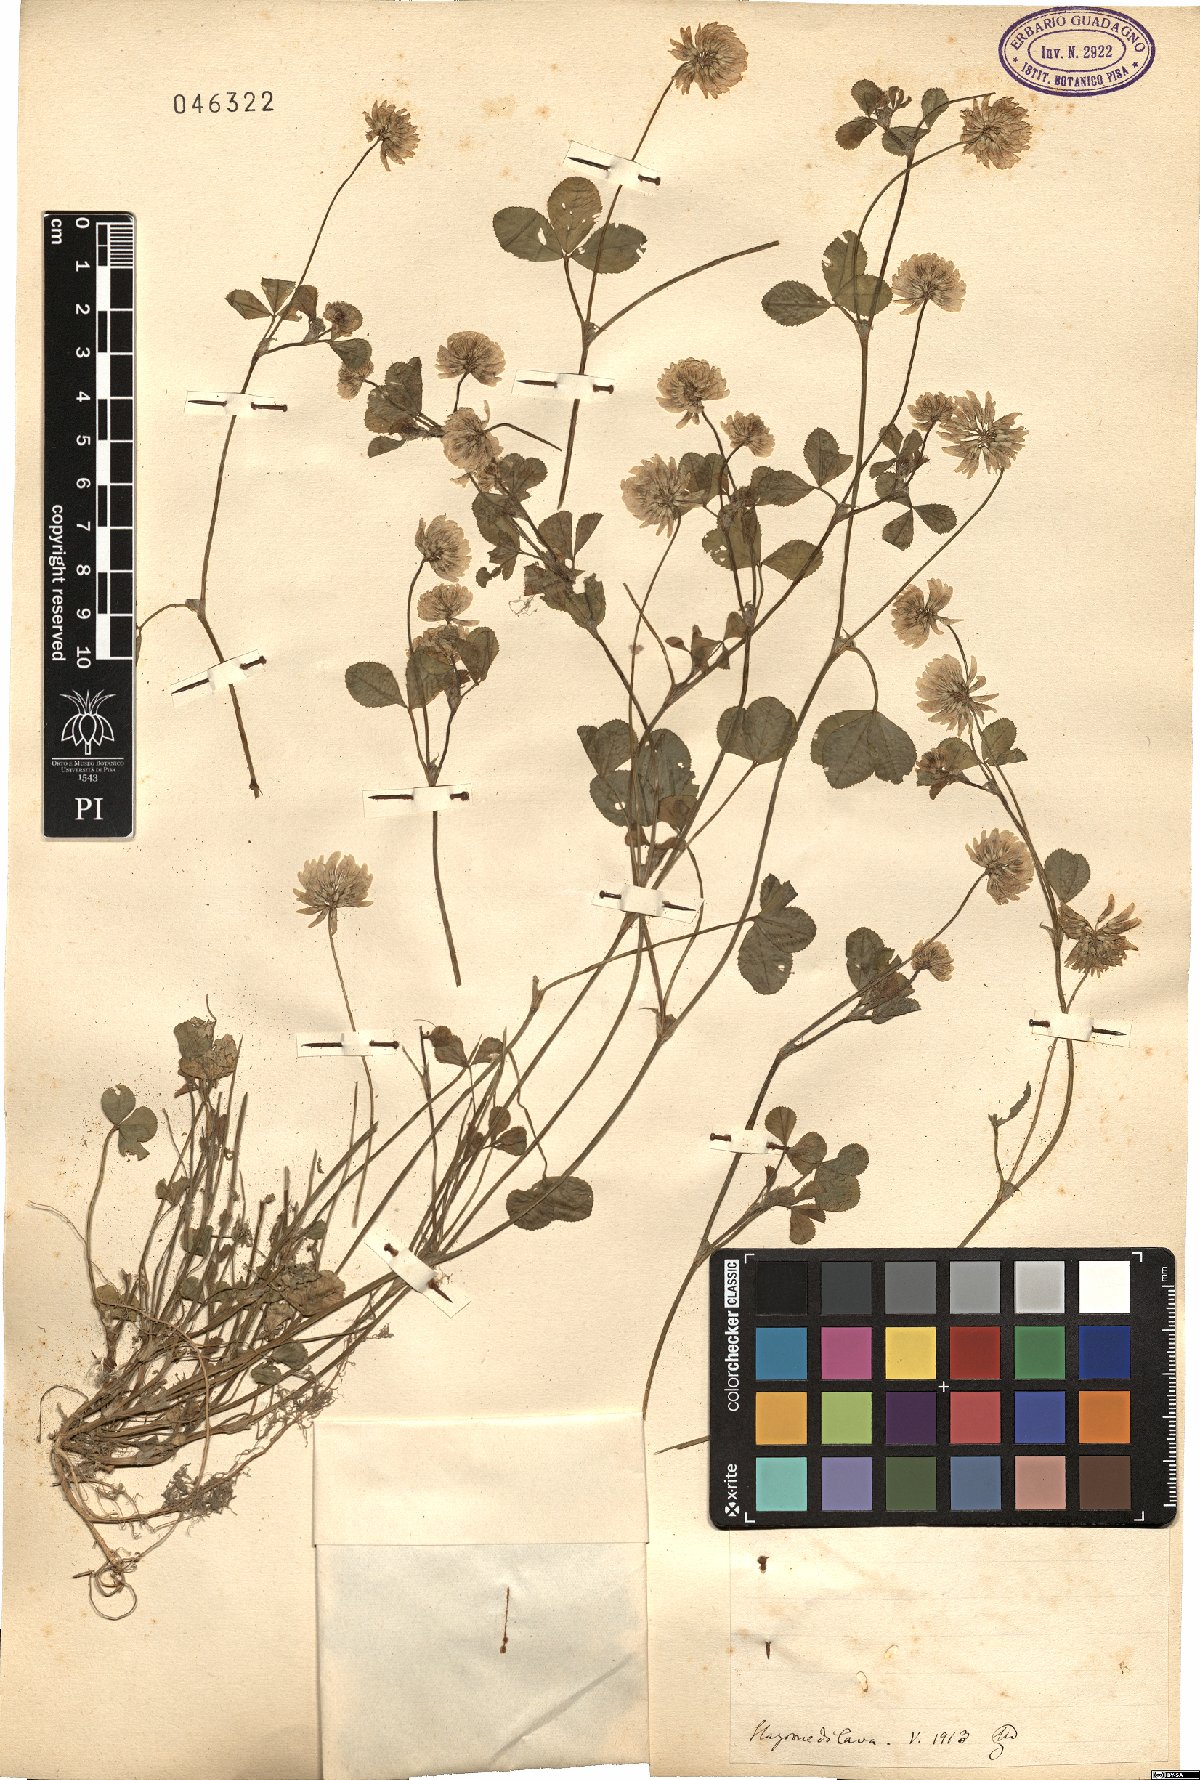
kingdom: Plantae
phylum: Tracheophyta
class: Magnoliopsida
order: Fabales
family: Fabaceae
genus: Trifolium
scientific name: Trifolium
